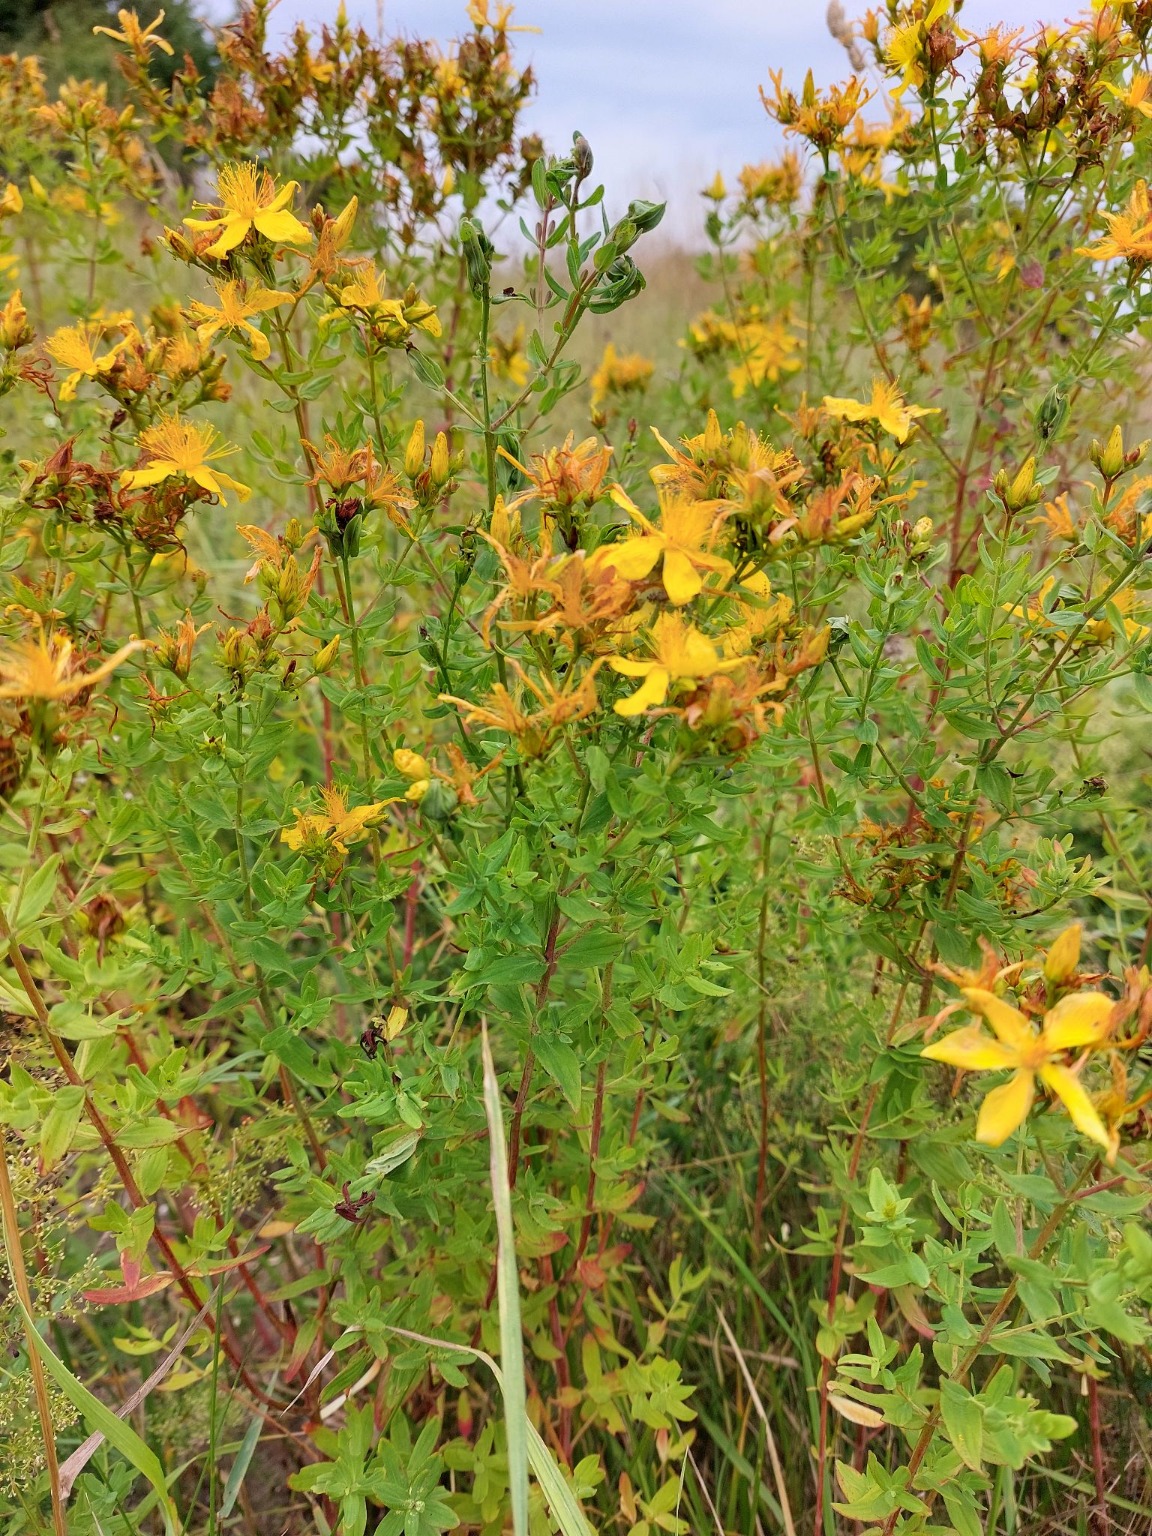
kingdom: Plantae
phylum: Tracheophyta
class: Magnoliopsida
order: Malpighiales
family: Hypericaceae
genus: Hypericum
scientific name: Hypericum perforatum
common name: Prikbladet perikon
